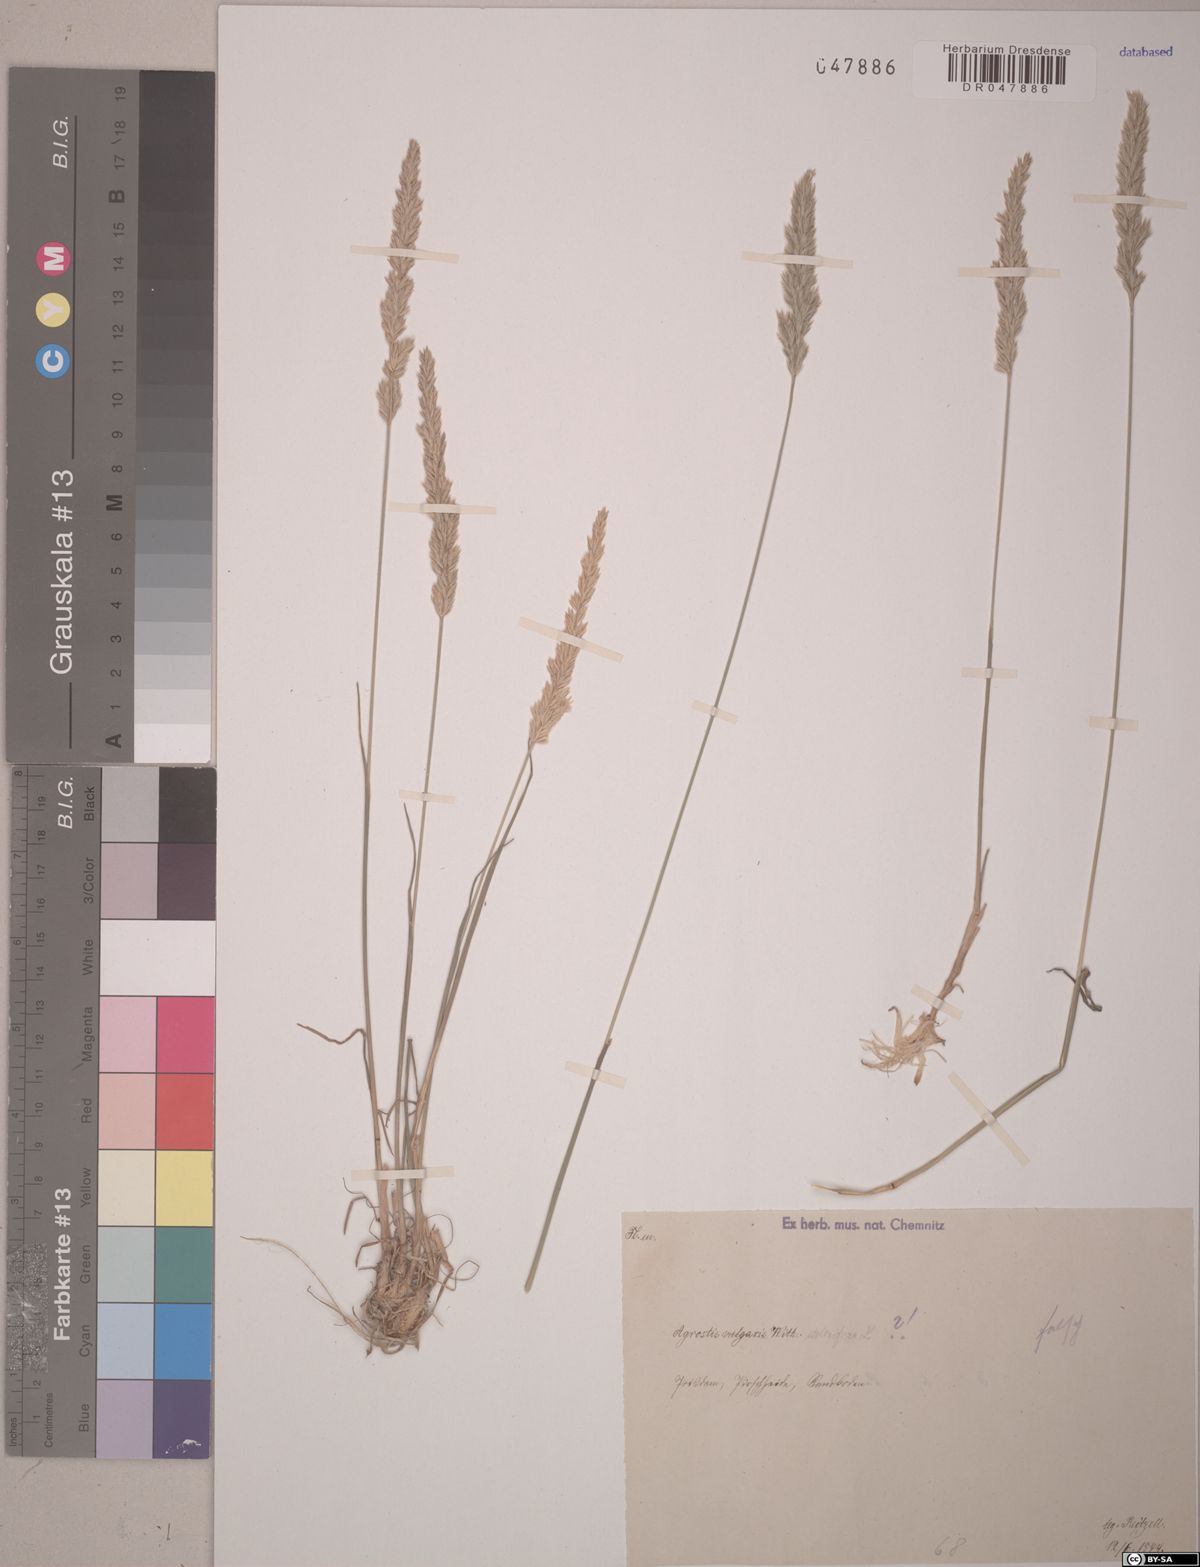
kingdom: Plantae
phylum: Tracheophyta
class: Liliopsida
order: Poales
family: Poaceae
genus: Agrostis
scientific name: Agrostis stolonifera
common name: Creeping bentgrass
